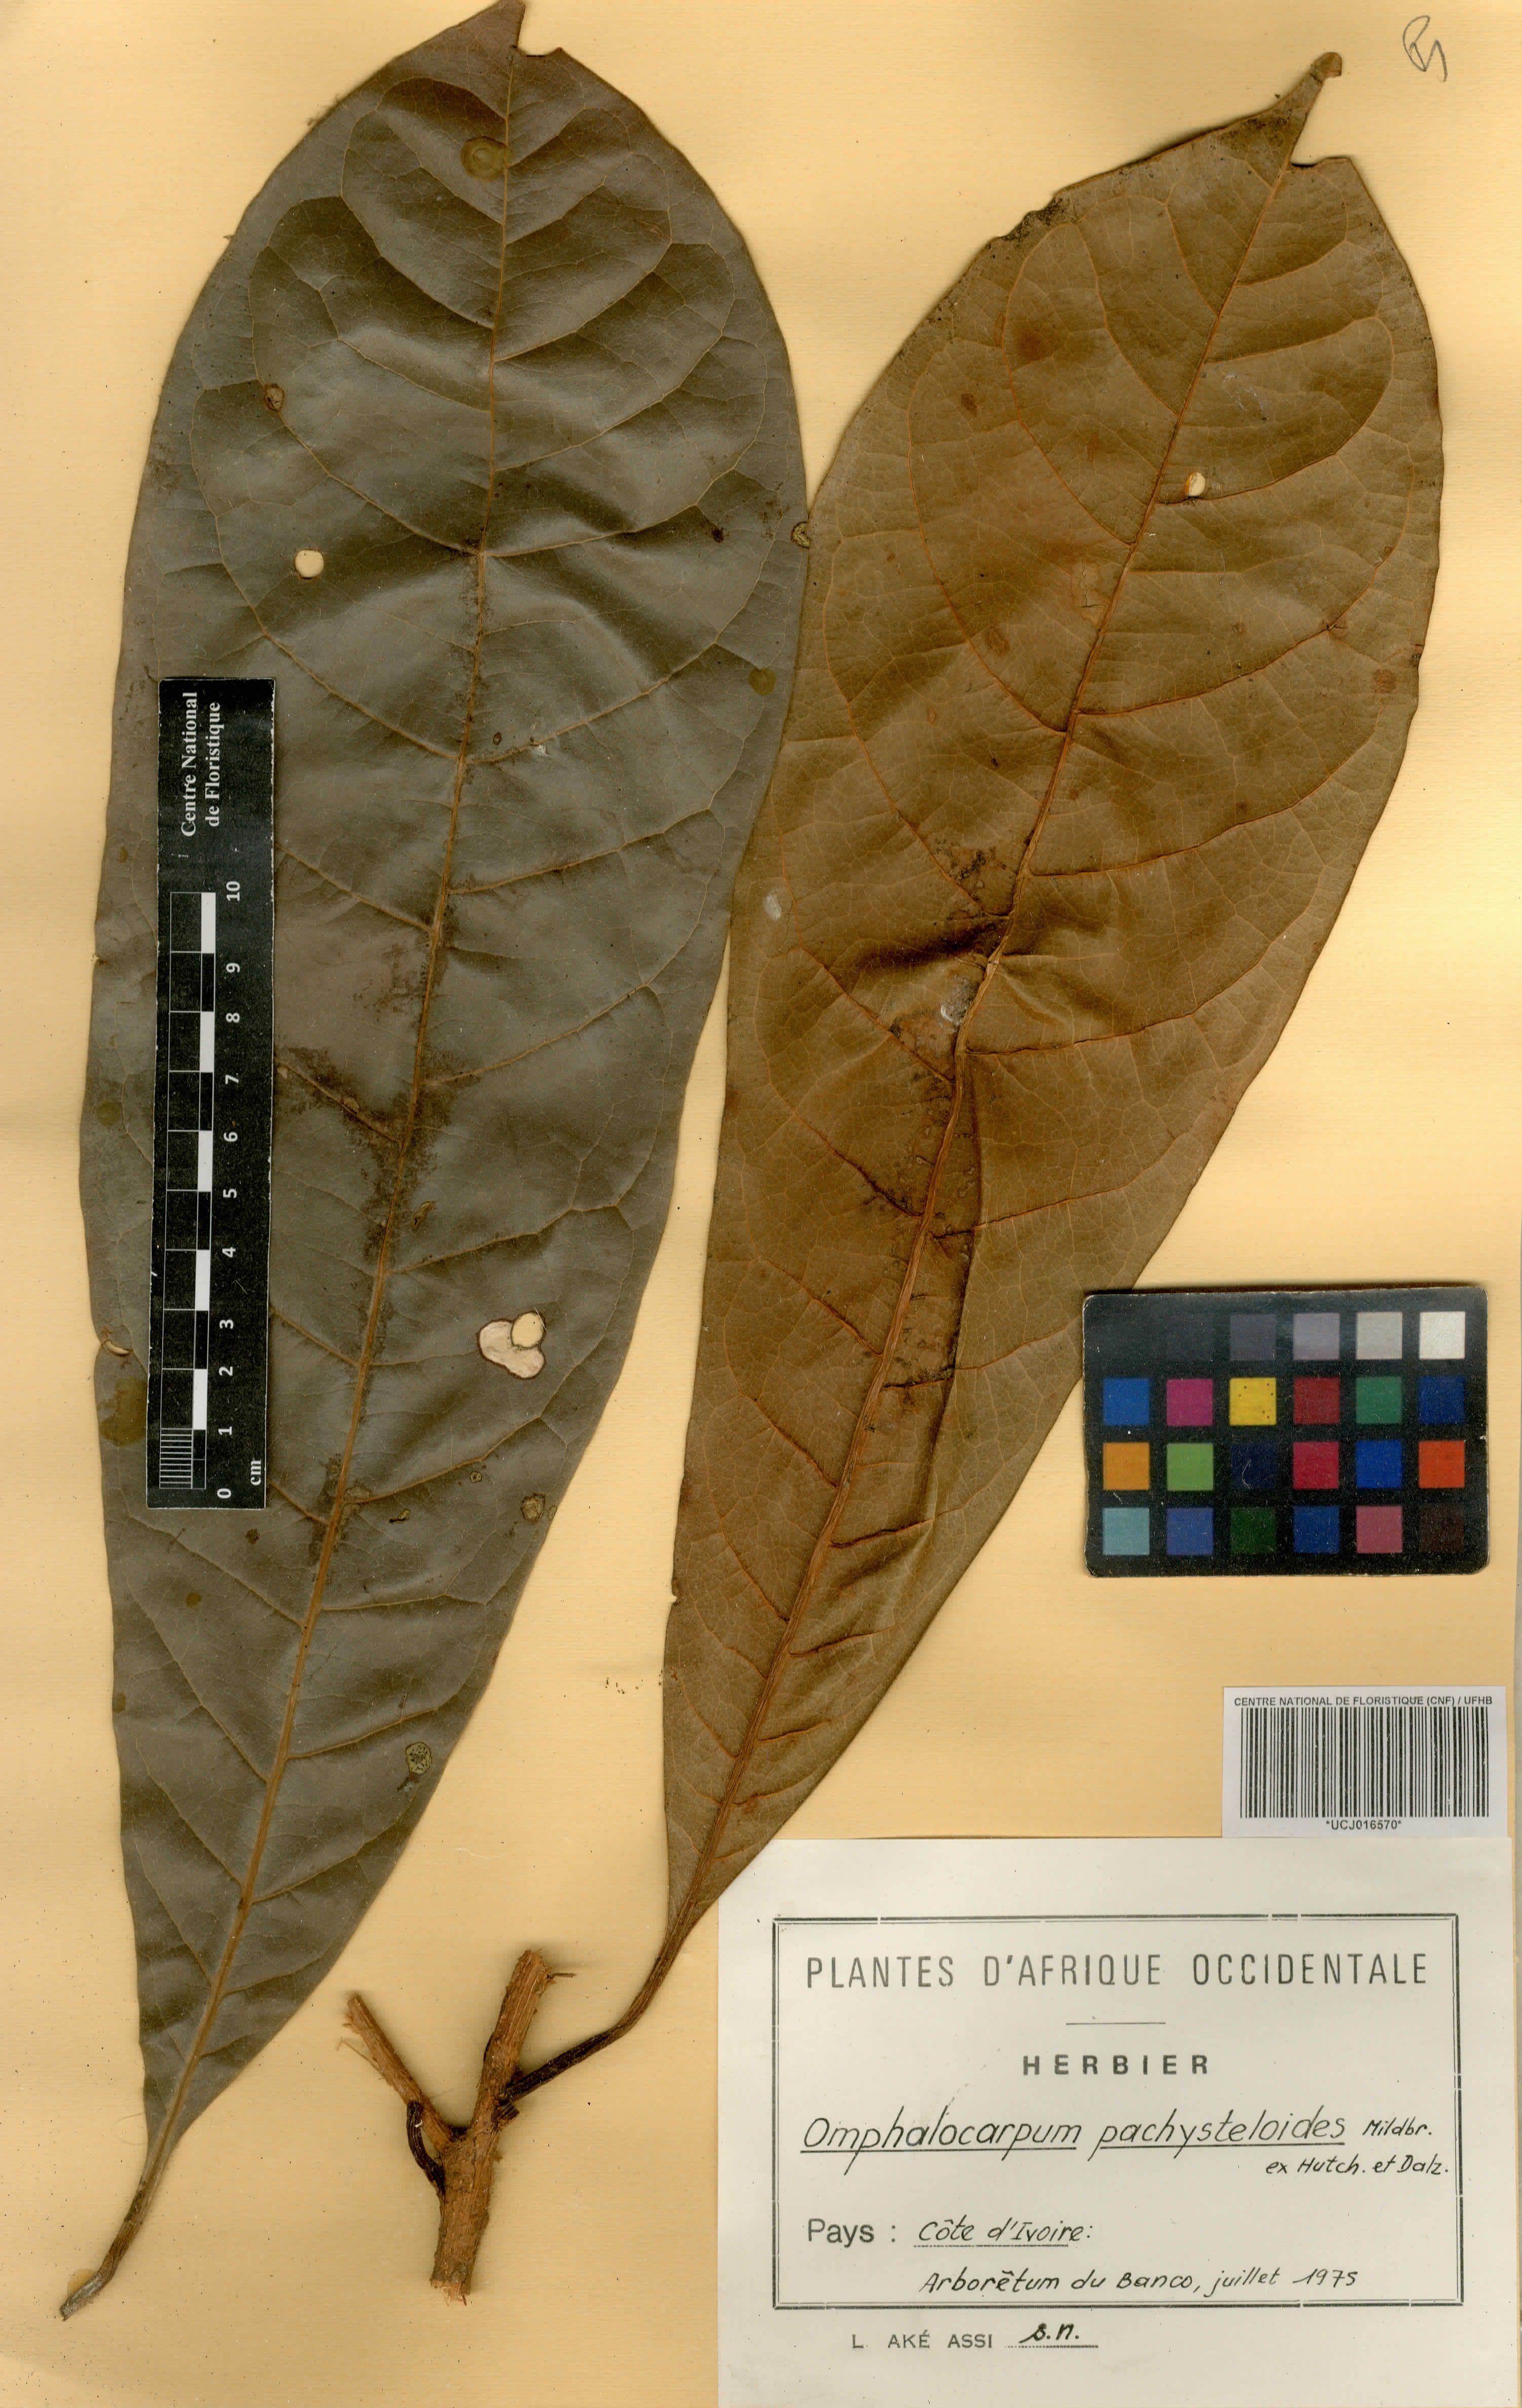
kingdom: Plantae
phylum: Tracheophyta
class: Magnoliopsida
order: Ericales
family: Sapotaceae
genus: Omphalocarpum
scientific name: Omphalocarpum pachysteloides
